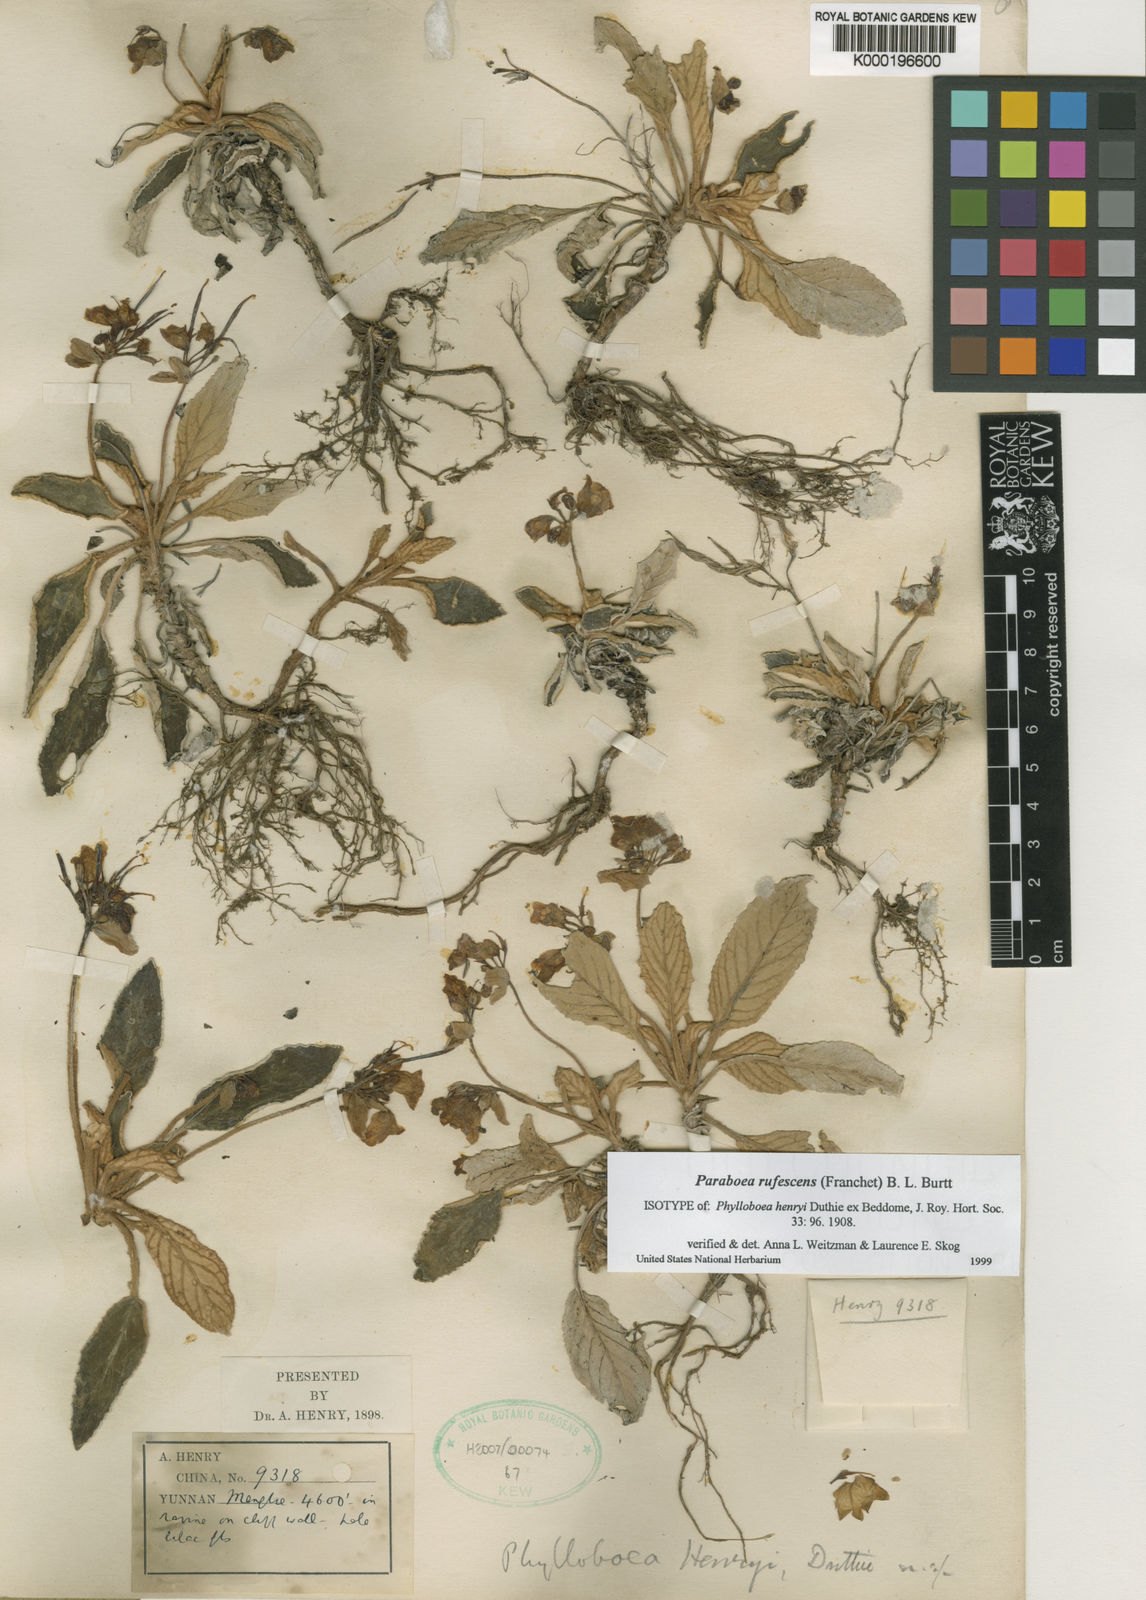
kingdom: Plantae
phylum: Tracheophyta
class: Magnoliopsida
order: Lamiales
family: Gesneriaceae
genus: Paraboea
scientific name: Paraboea rufescens
